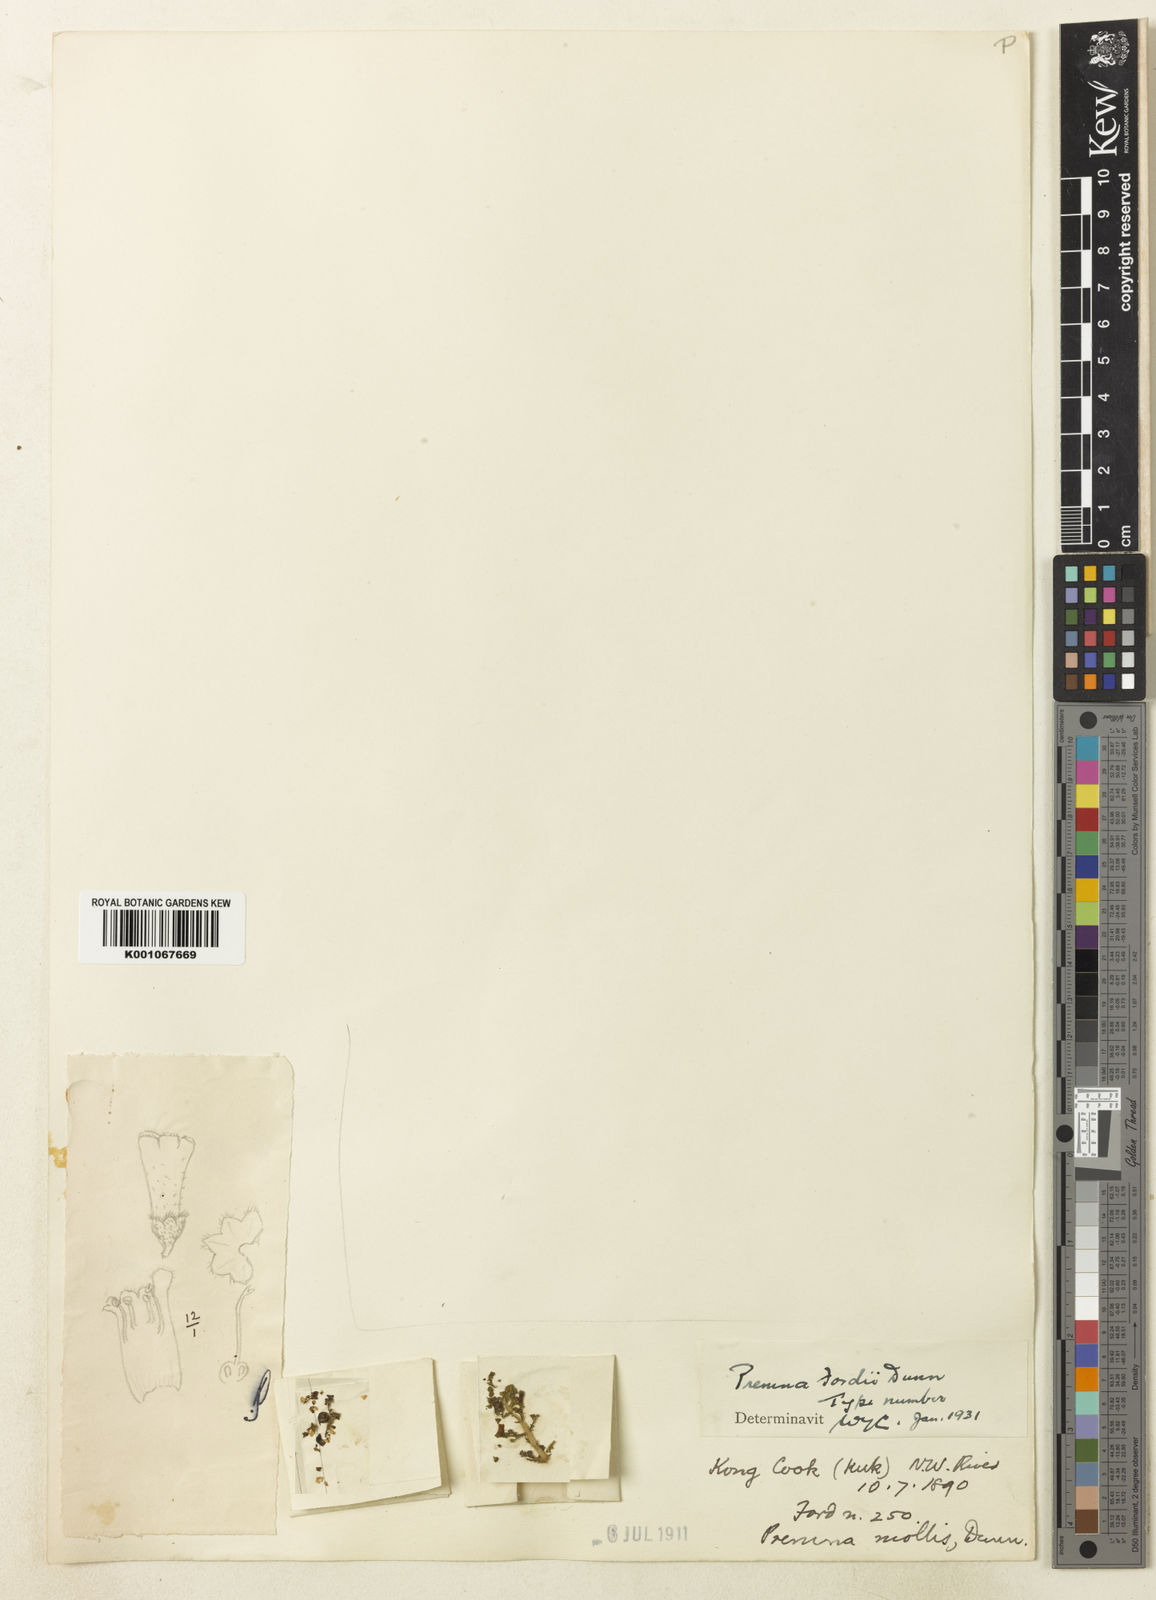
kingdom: Plantae
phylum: Tracheophyta
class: Magnoliopsida
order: Lamiales
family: Lamiaceae
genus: Premna
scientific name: Premna fordii
